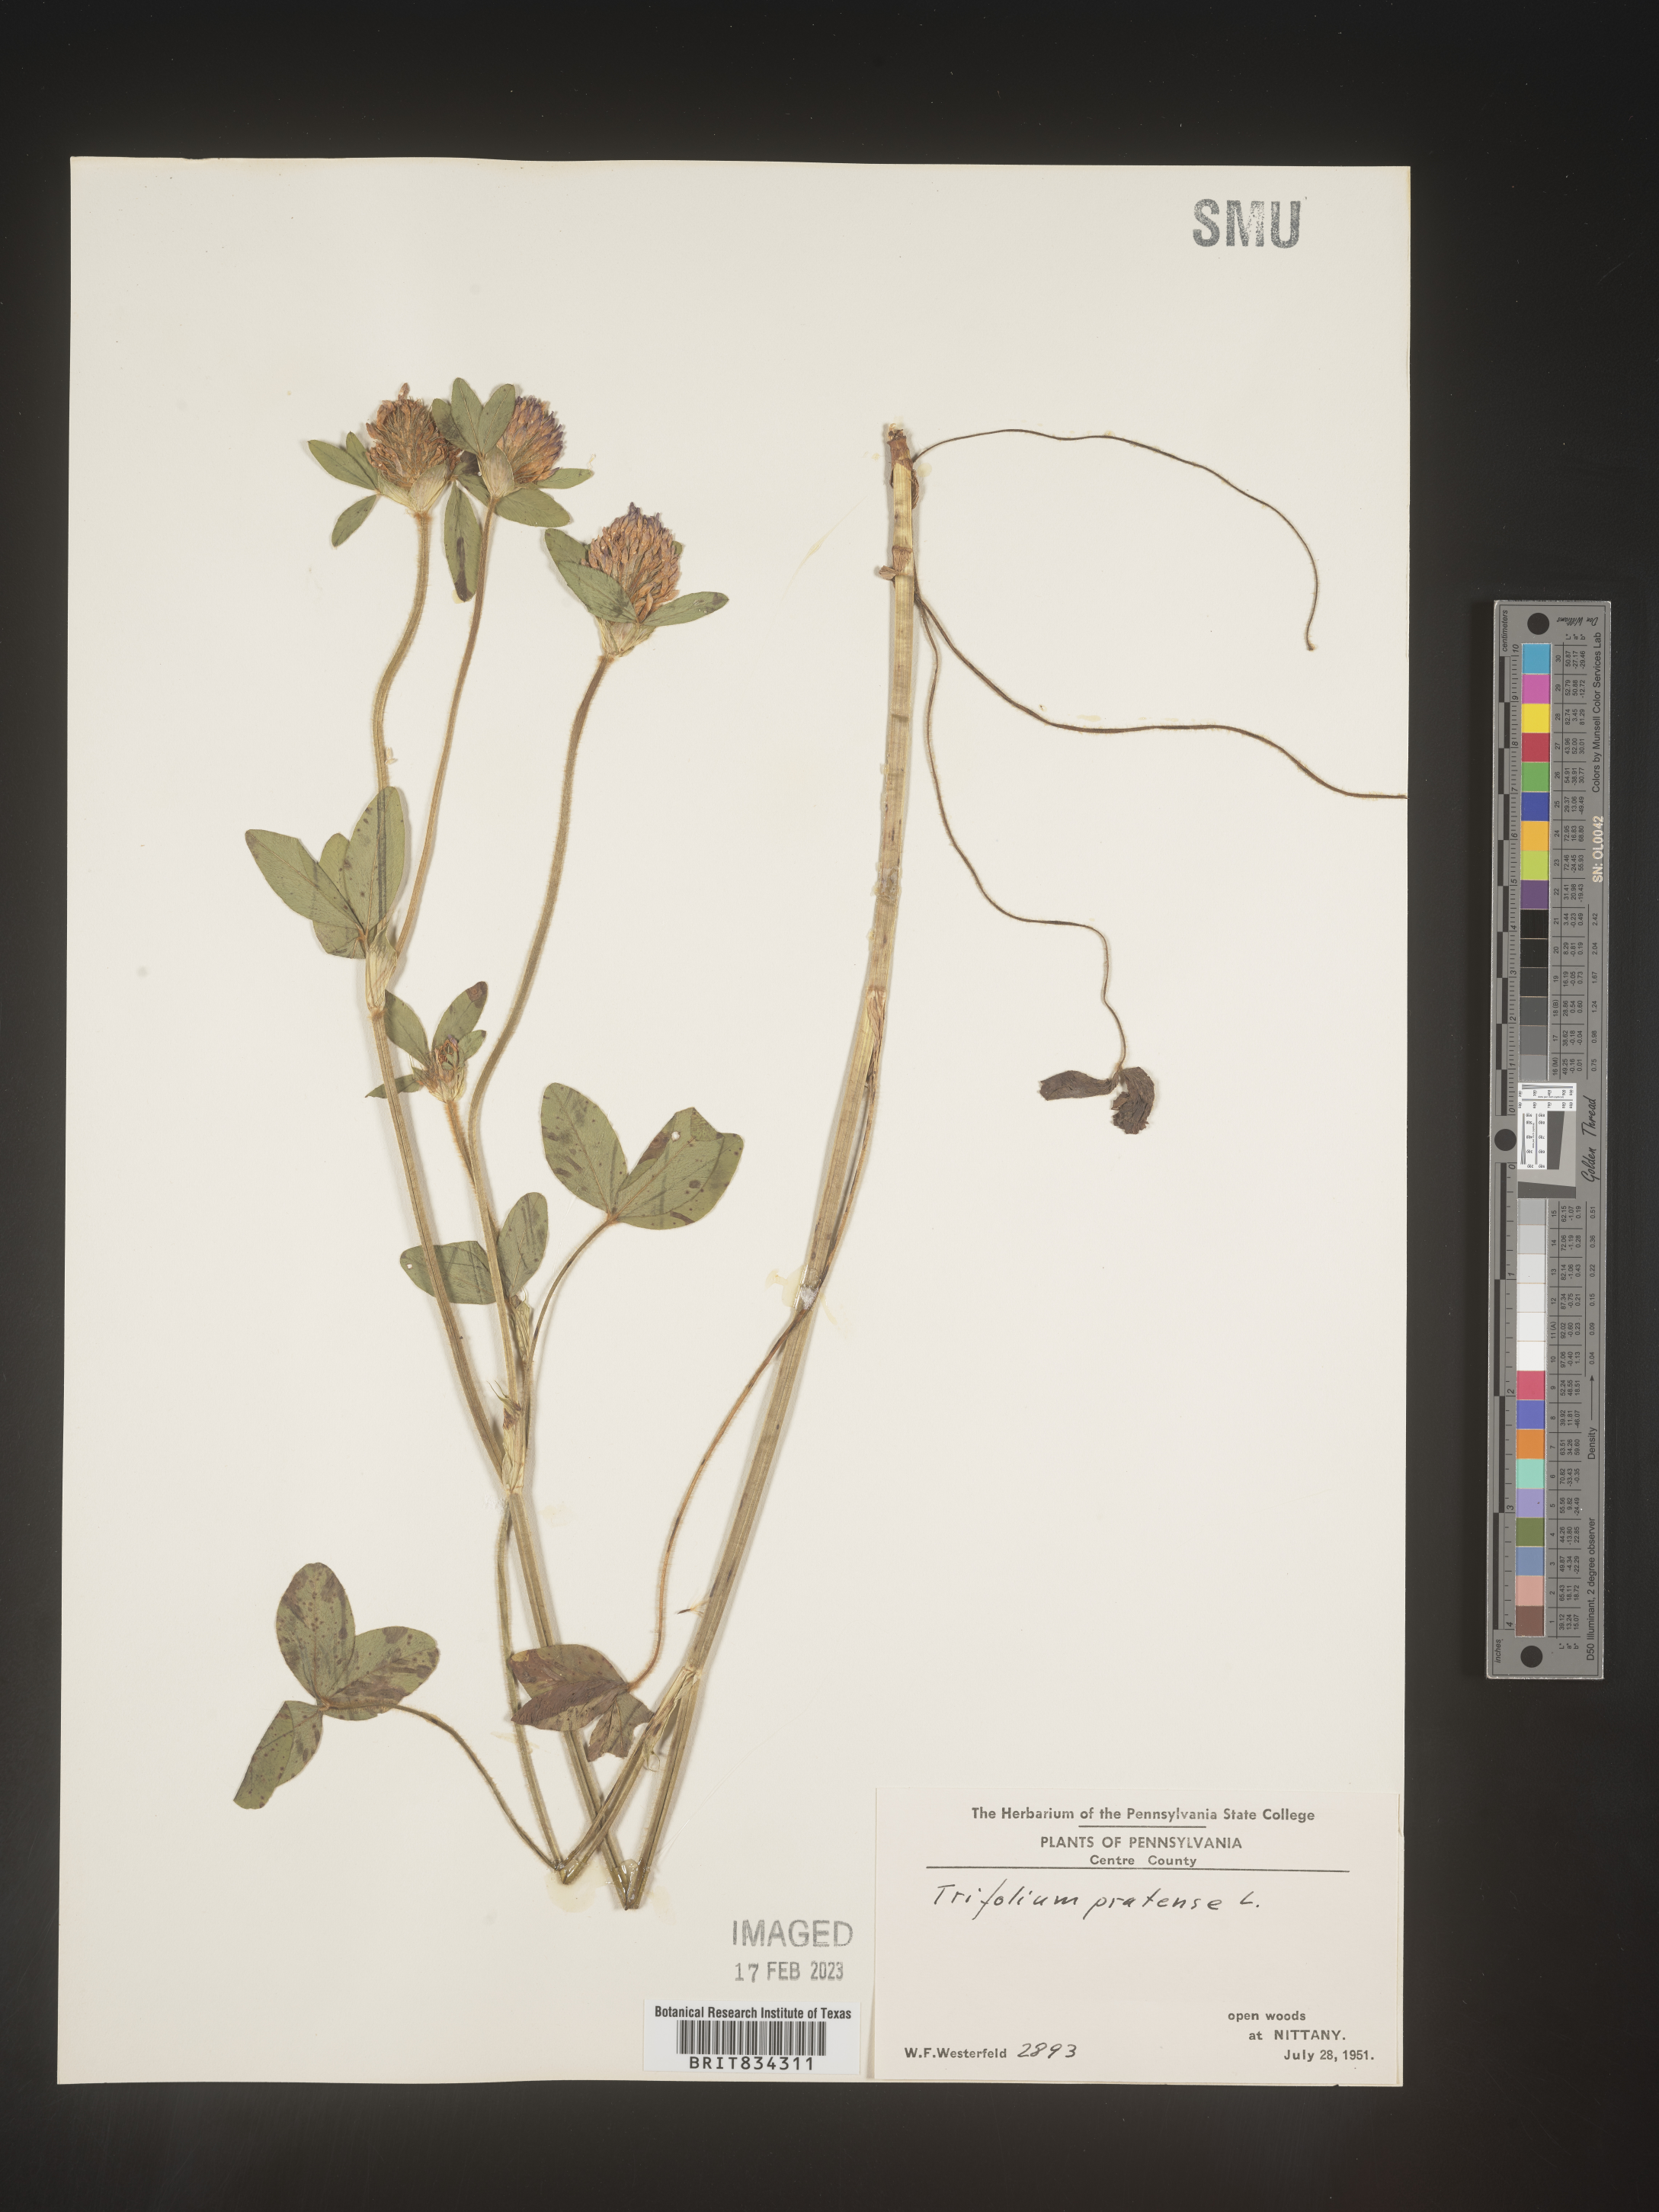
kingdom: Plantae
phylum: Tracheophyta
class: Magnoliopsida
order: Fabales
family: Fabaceae
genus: Trifolium
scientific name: Trifolium pratense
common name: Red clover
